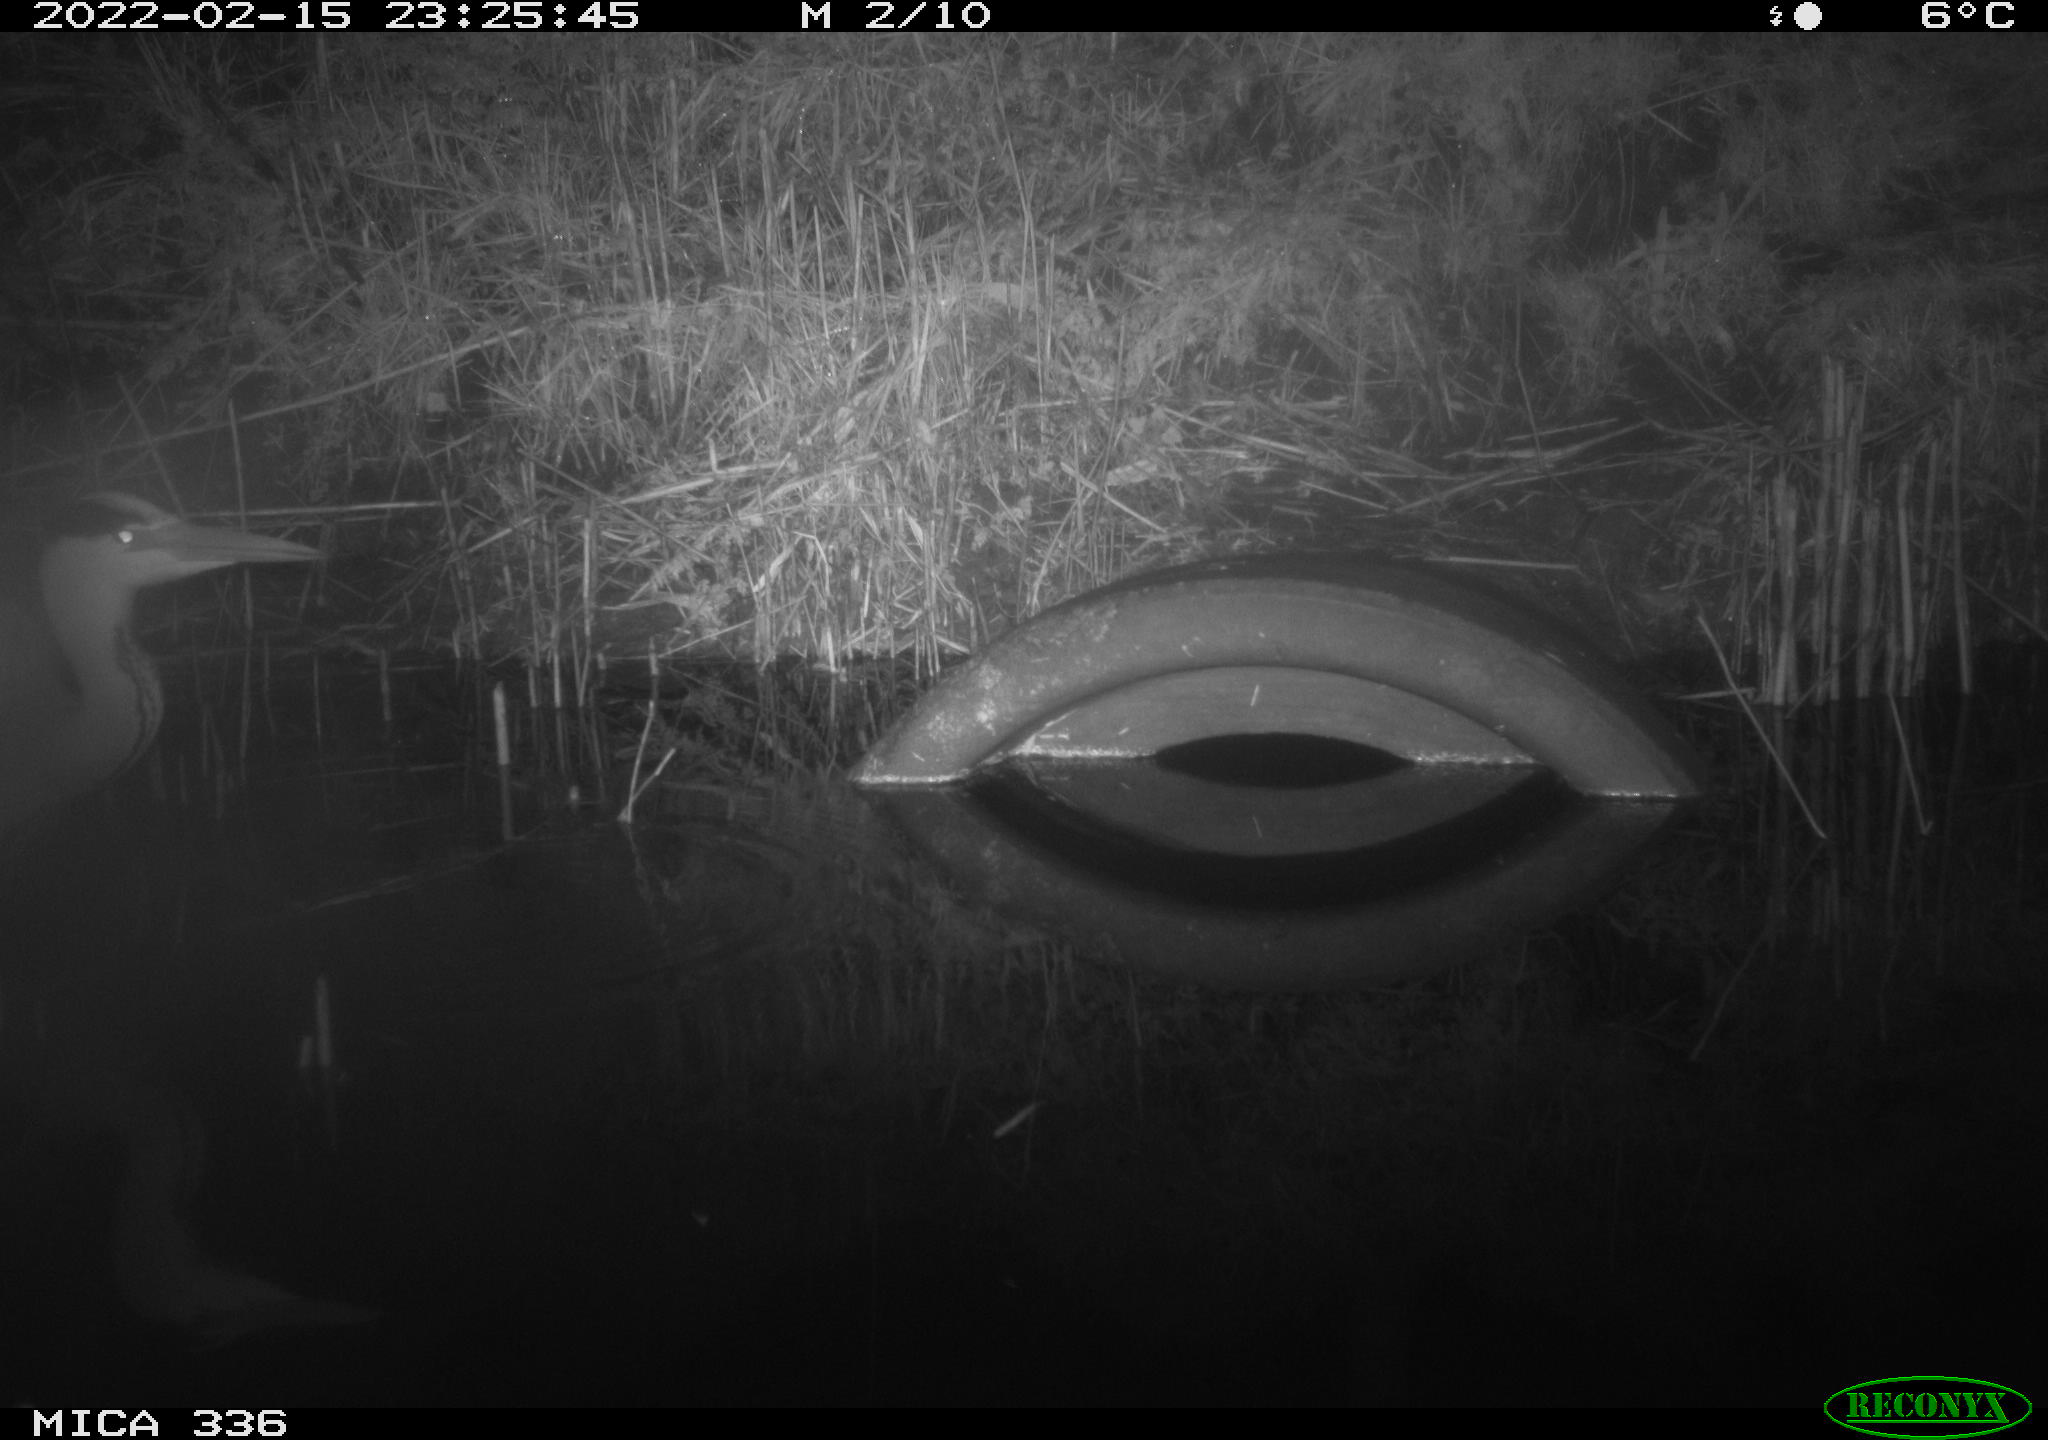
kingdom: Animalia
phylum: Chordata
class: Aves
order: Pelecaniformes
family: Ardeidae
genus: Ardea
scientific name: Ardea cinerea
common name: Grey heron
